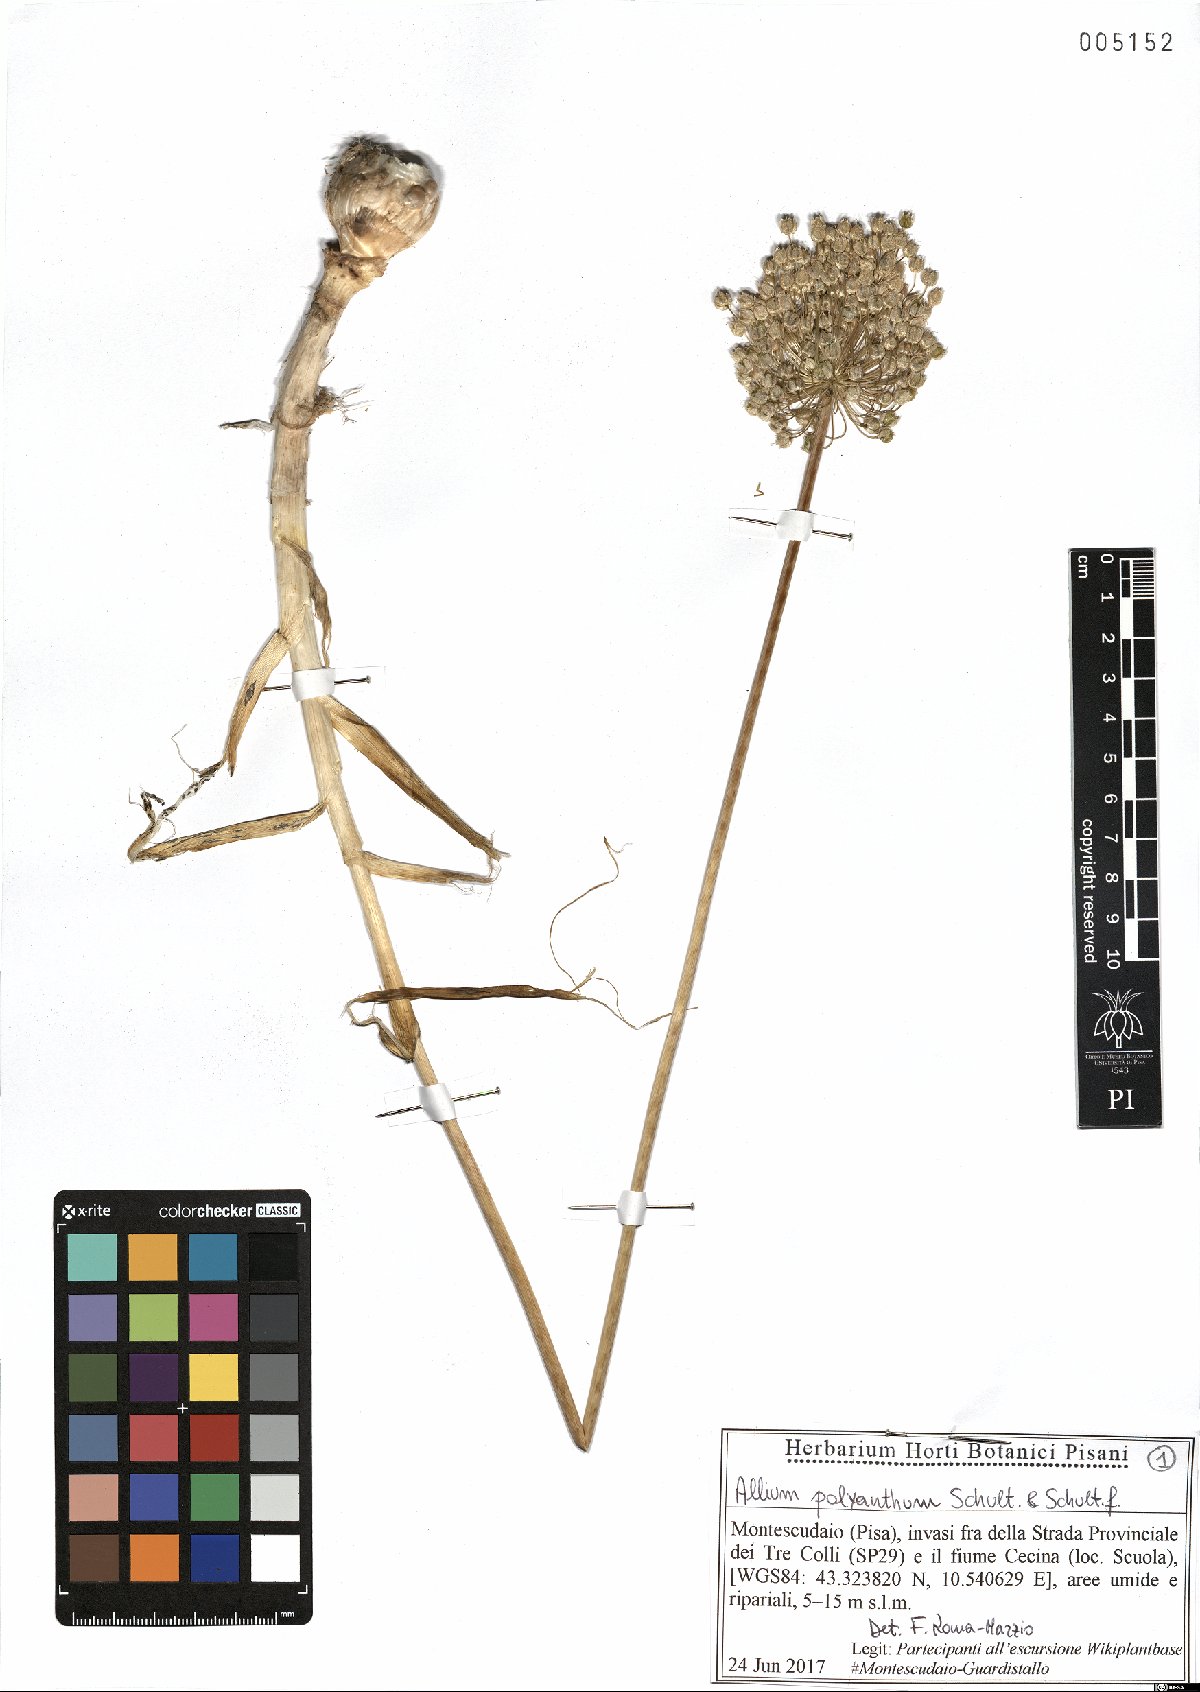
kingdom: Plantae
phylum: Tracheophyta
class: Liliopsida
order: Asparagales
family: Amaryllidaceae
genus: Allium
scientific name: Allium ampeloprasum
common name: Wild leek
